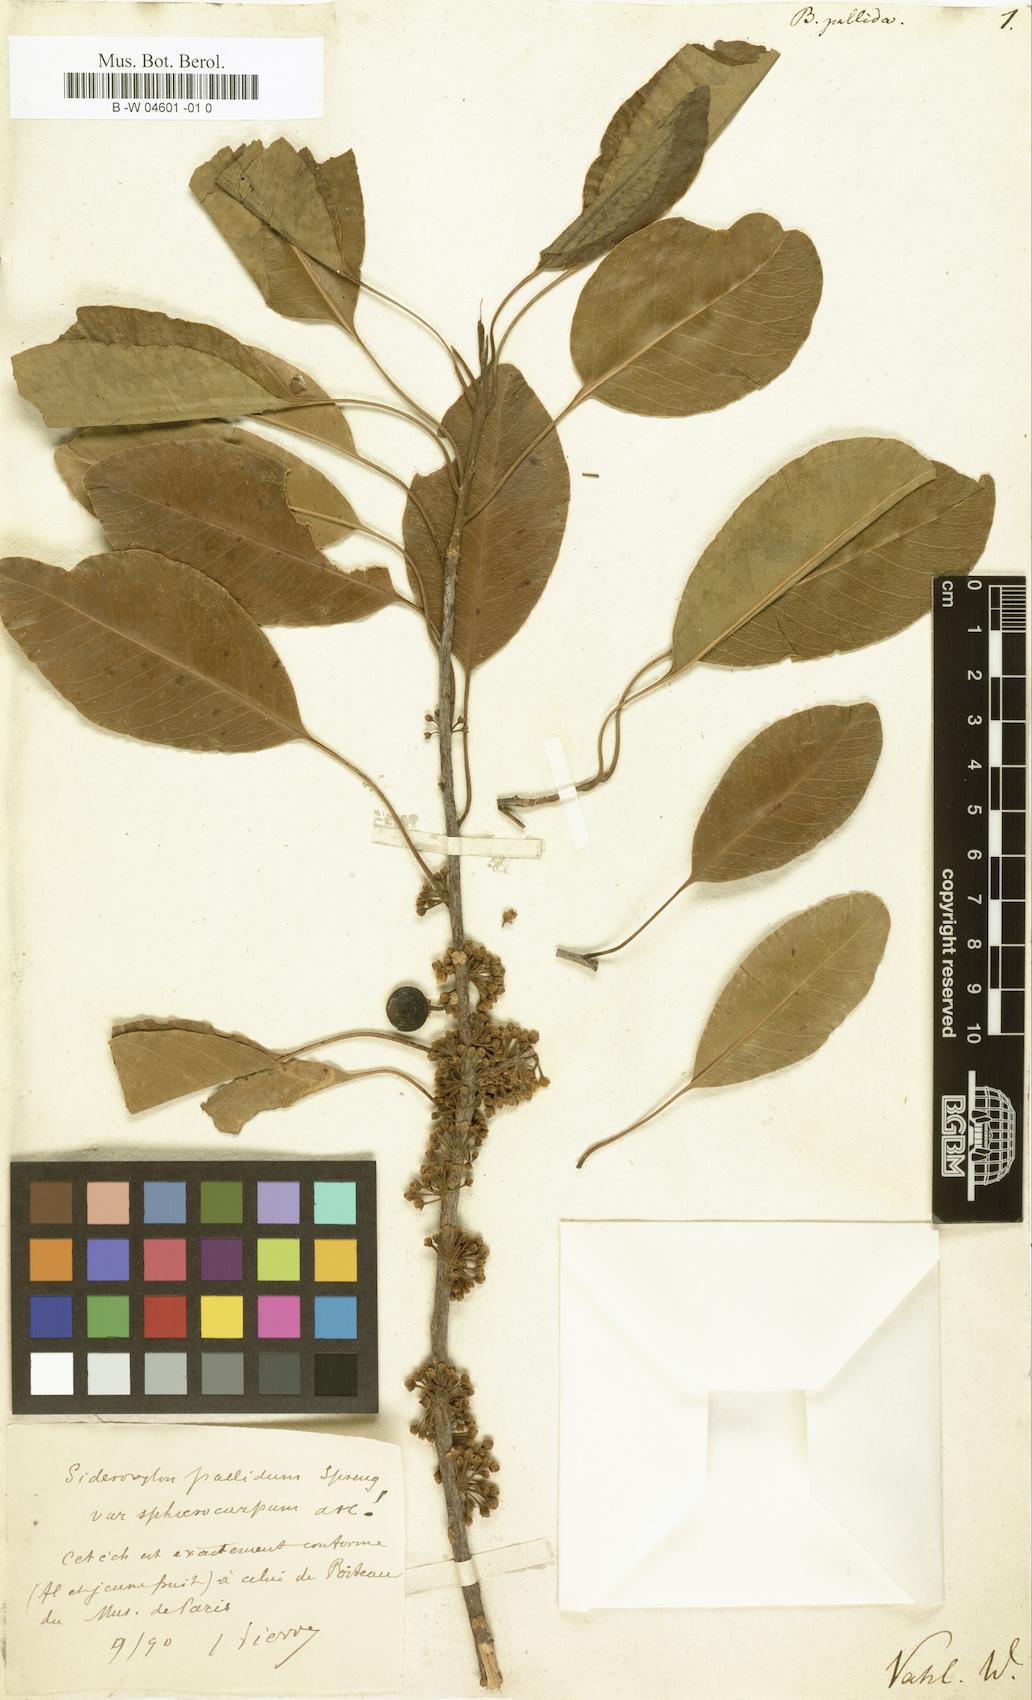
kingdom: Plantae
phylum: Tracheophyta
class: Magnoliopsida
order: Ericales
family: Sapotaceae
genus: Sideroxylon
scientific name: Sideroxylon foetidissimum
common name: Barbados-mastic
